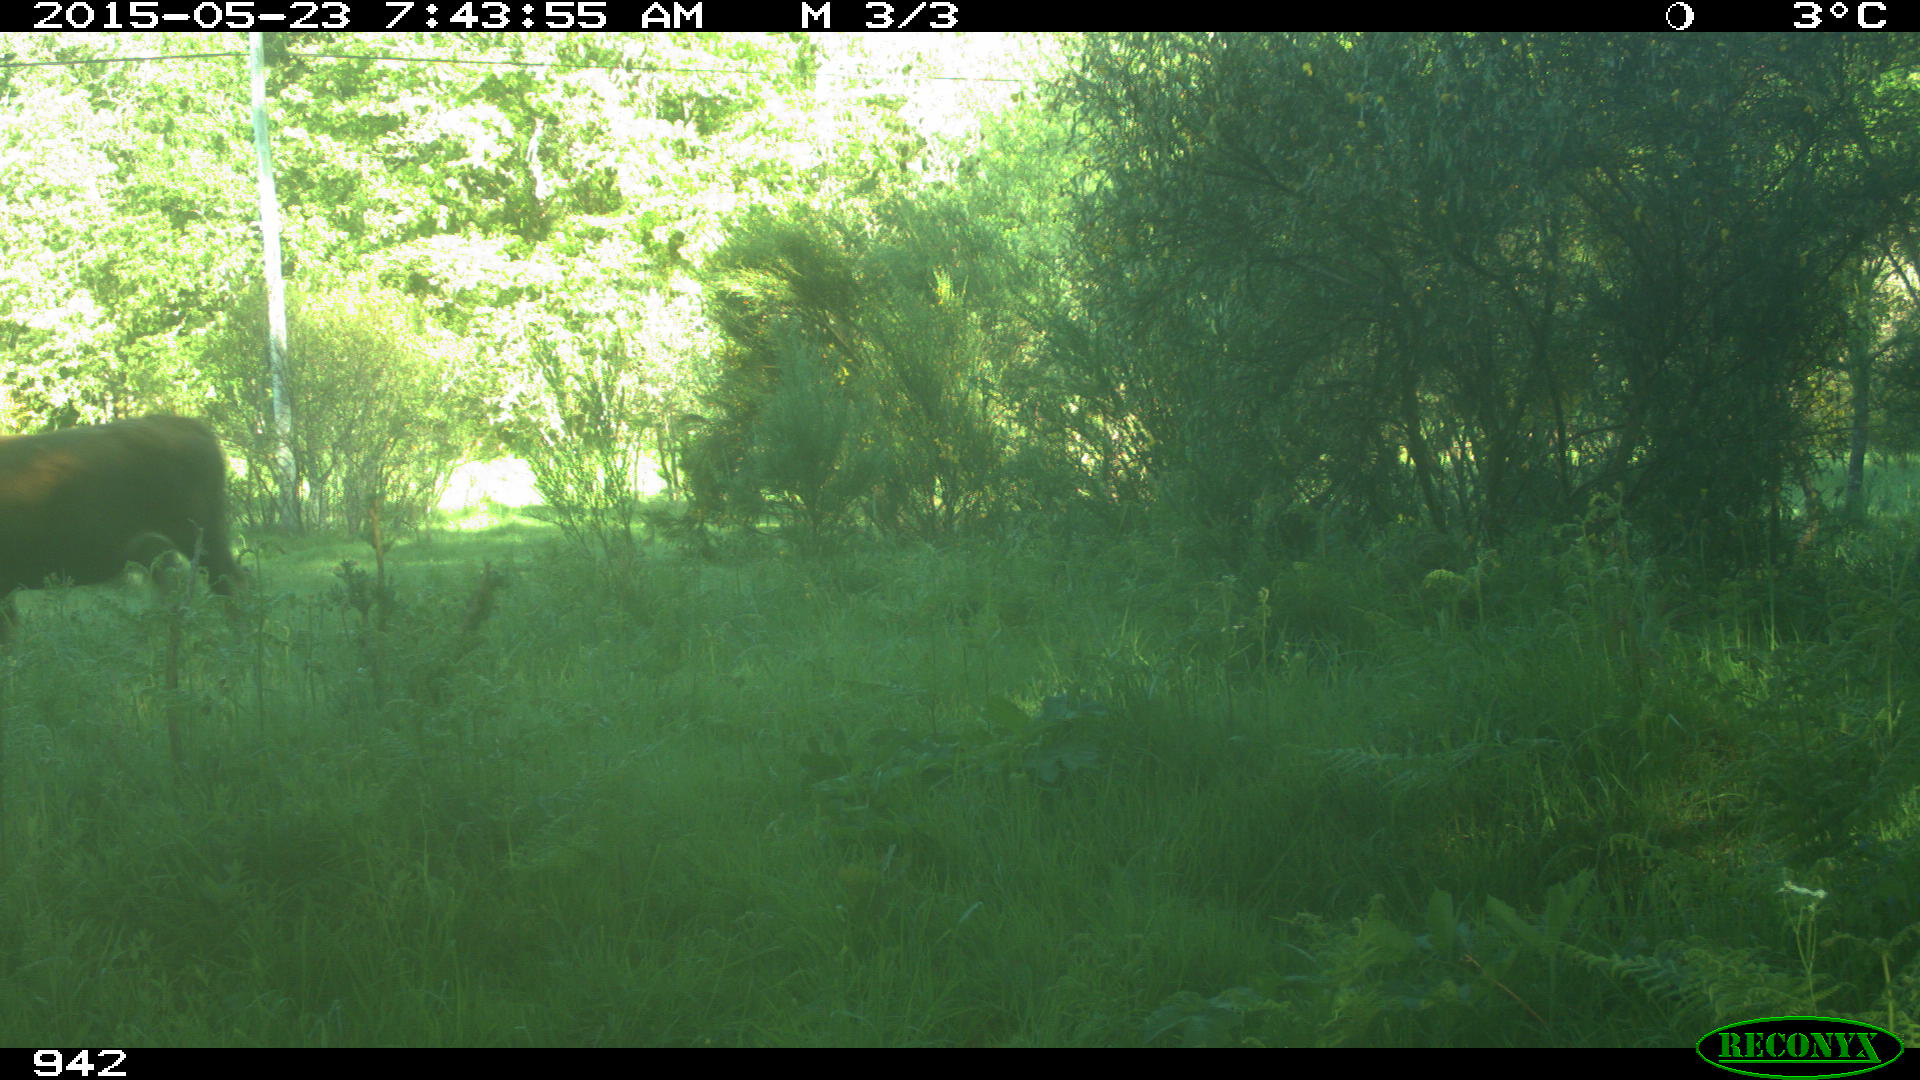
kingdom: Animalia
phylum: Chordata
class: Mammalia
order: Artiodactyla
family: Bovidae
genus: Bos
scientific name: Bos taurus
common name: Domesticated cattle
